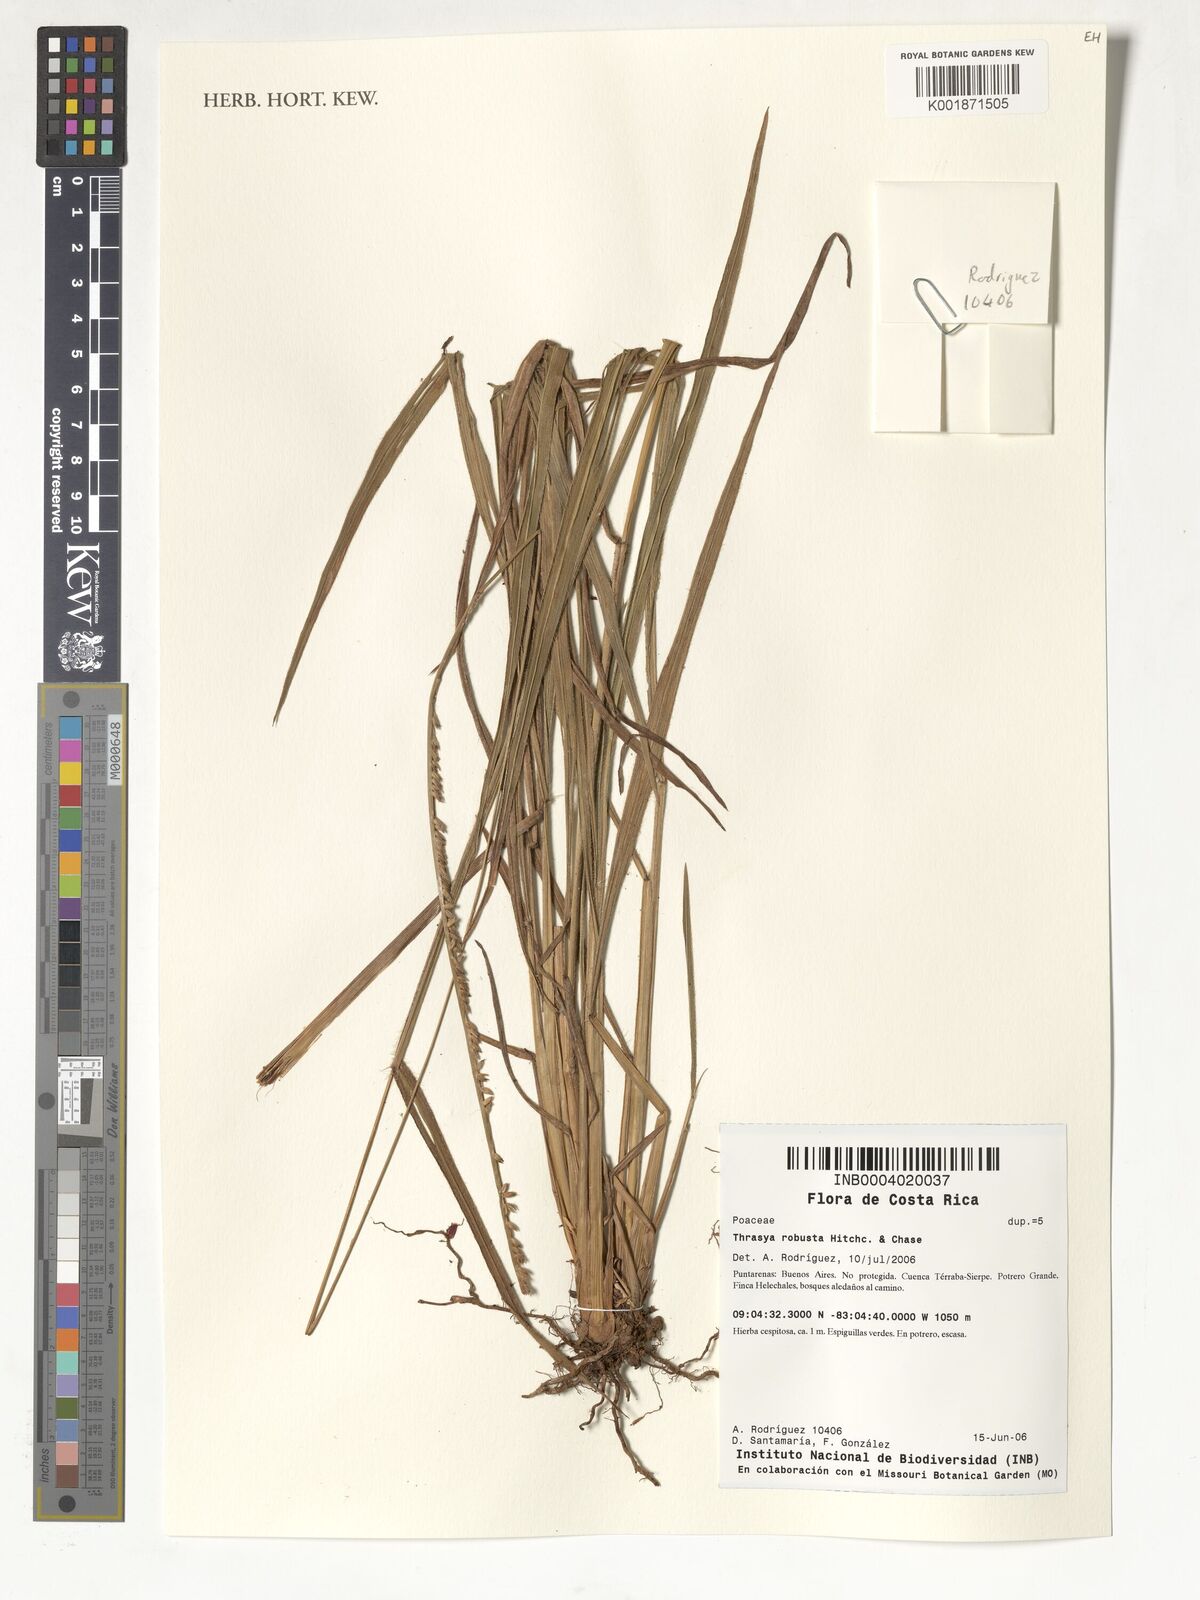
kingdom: Plantae
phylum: Tracheophyta
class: Liliopsida
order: Poales
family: Poaceae
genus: Paspalum
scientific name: Paspalum robustum
